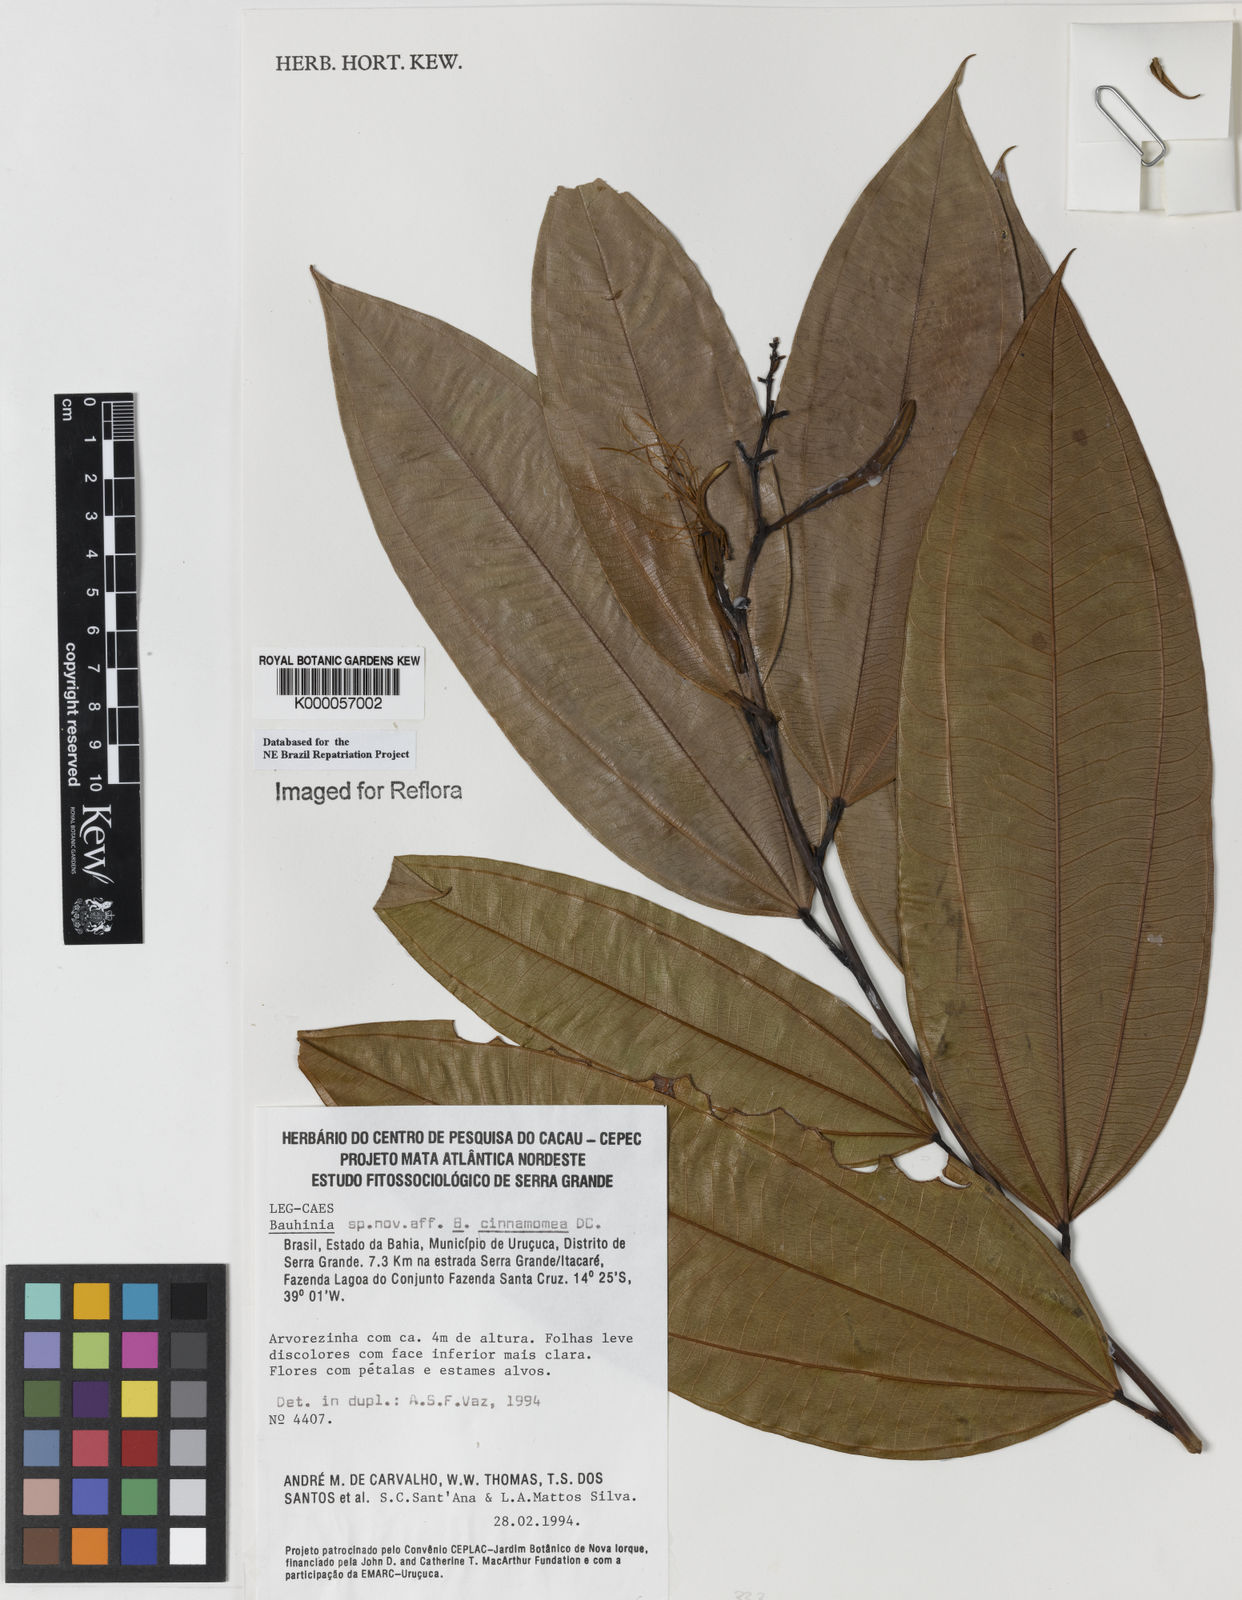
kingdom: Plantae
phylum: Tracheophyta
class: Magnoliopsida
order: Fabales
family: Fabaceae
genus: Bauhinia
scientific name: Bauhinia
